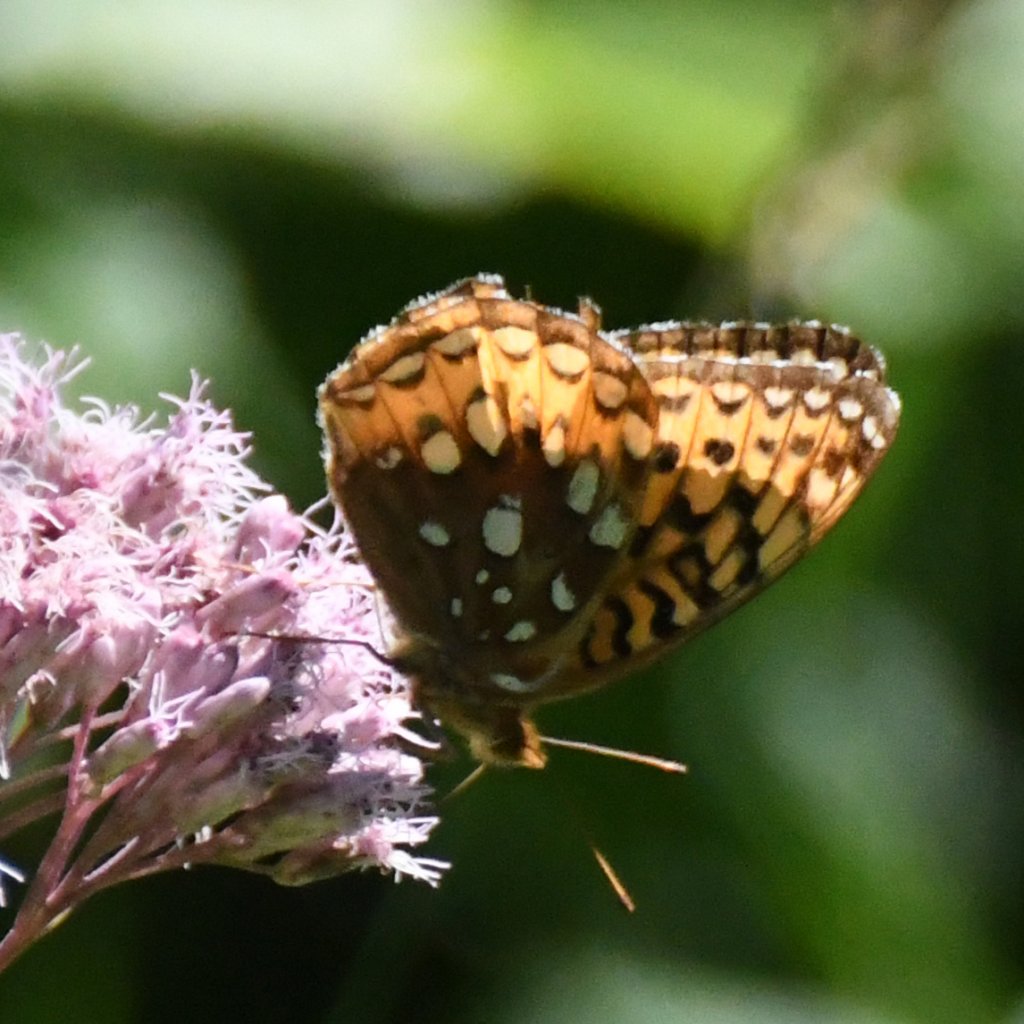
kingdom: Animalia
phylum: Arthropoda
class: Insecta
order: Lepidoptera
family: Nymphalidae
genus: Speyeria
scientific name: Speyeria cybele
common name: Great Spangled Fritillary
